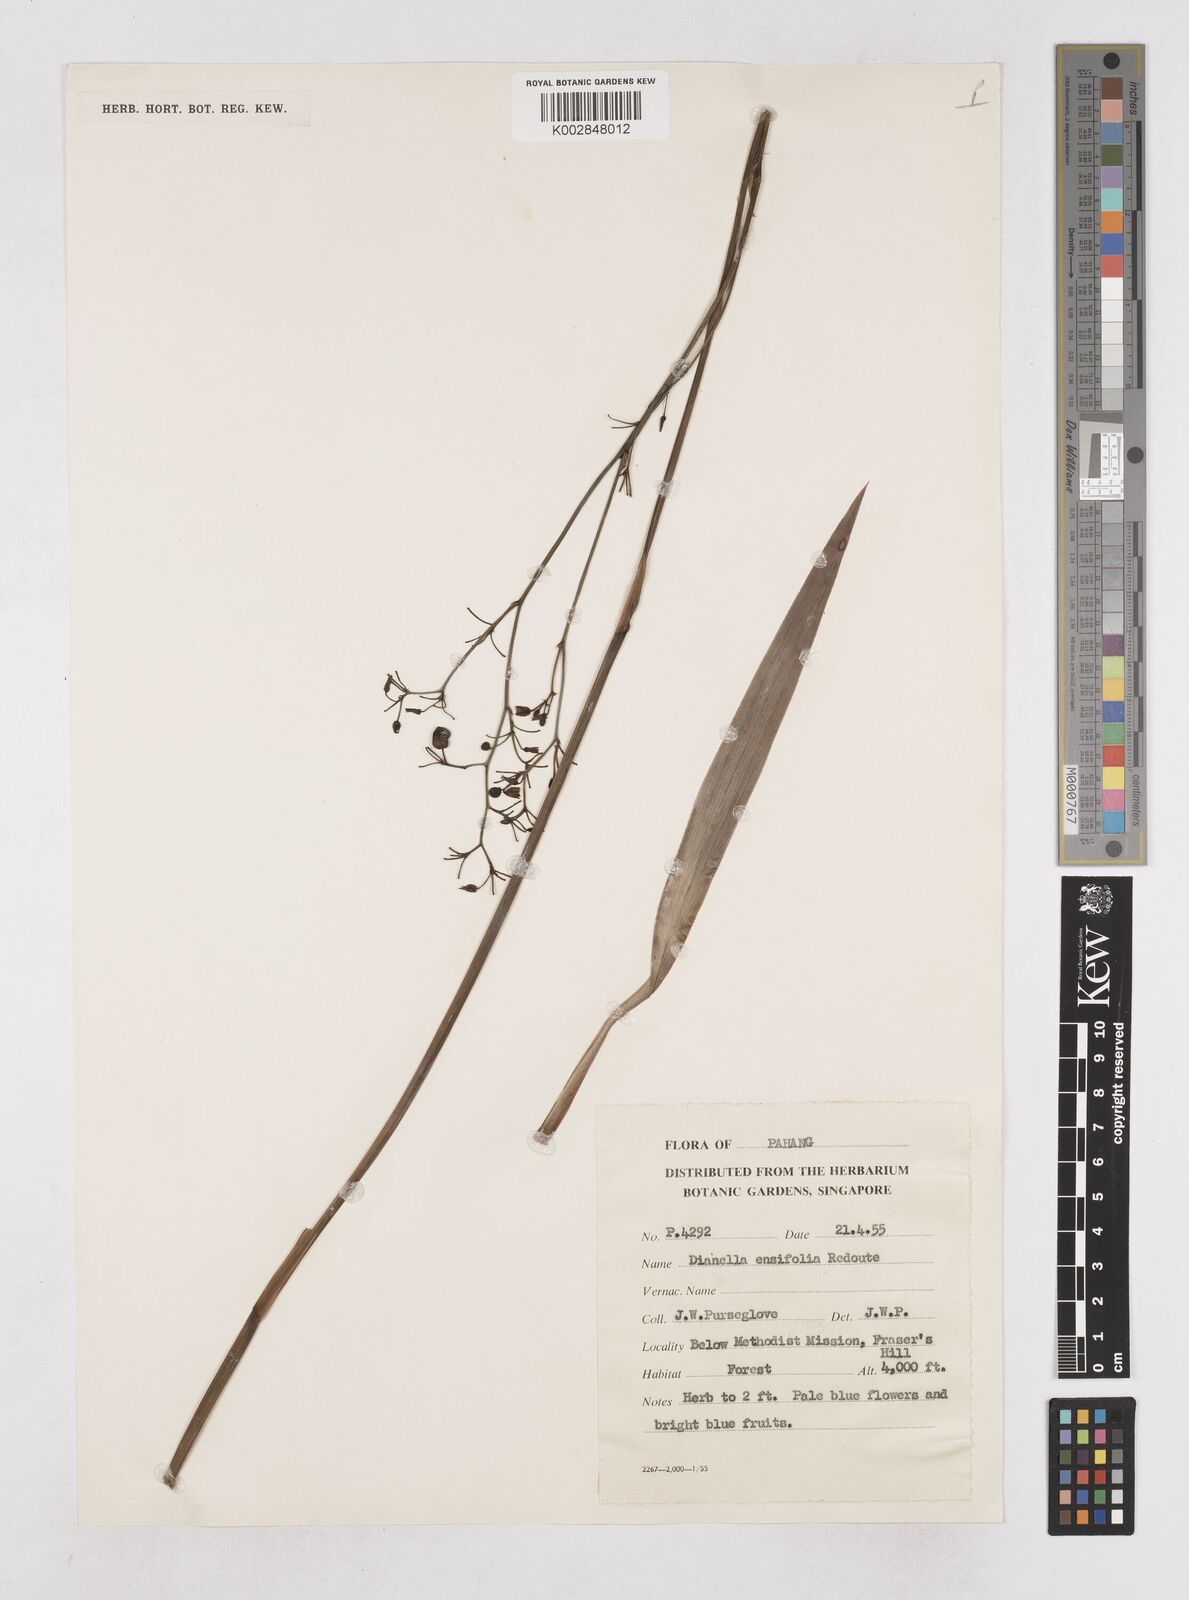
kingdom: Plantae
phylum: Tracheophyta
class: Liliopsida
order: Asparagales
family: Asphodelaceae
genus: Dianella
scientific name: Dianella ensifolia
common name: New zealand lilyplant
